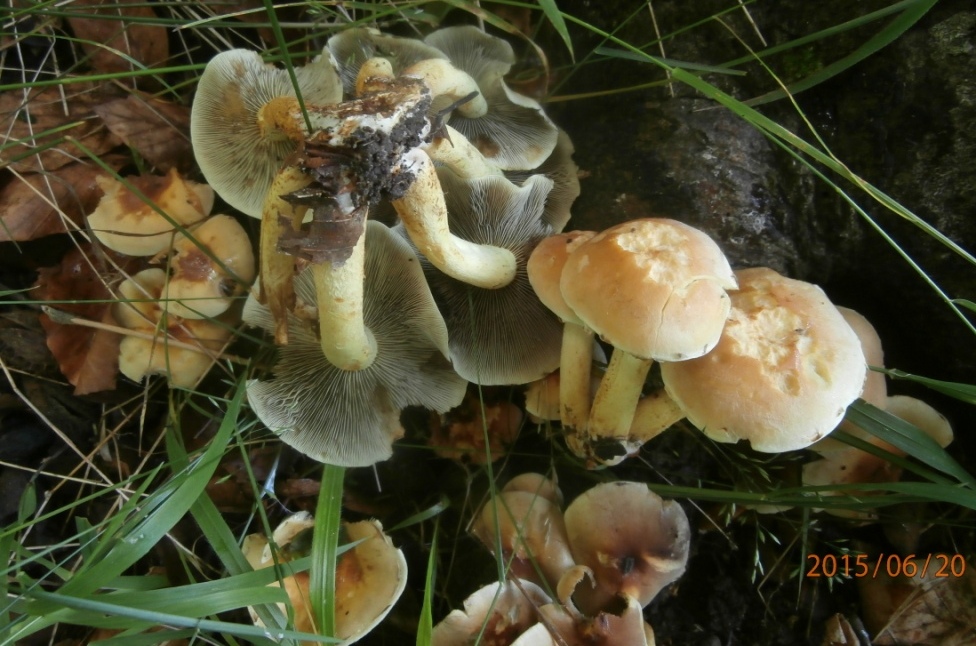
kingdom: Fungi
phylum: Basidiomycota
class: Agaricomycetes
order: Agaricales
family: Strophariaceae
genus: Hypholoma
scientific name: Hypholoma fasciculare
